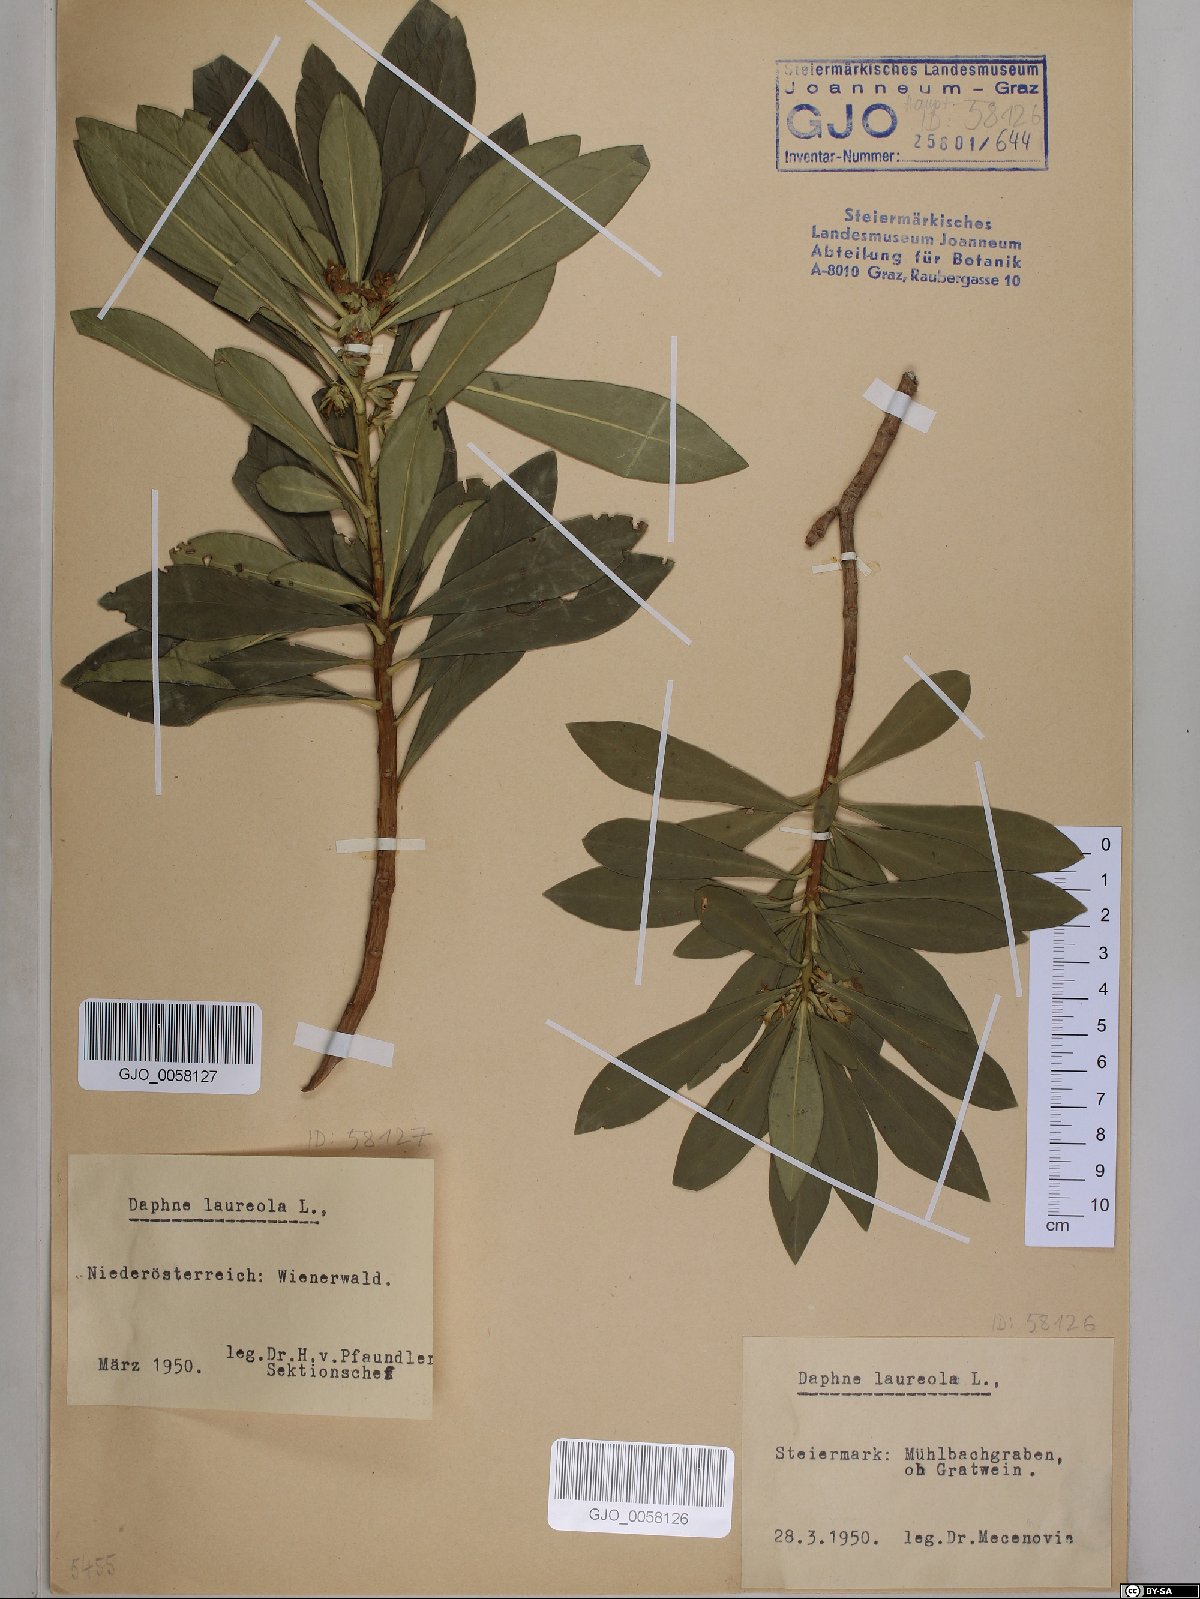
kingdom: Plantae
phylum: Tracheophyta
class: Magnoliopsida
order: Malvales
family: Thymelaeaceae
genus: Daphne
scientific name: Daphne laureola
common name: Spurge-laurel
